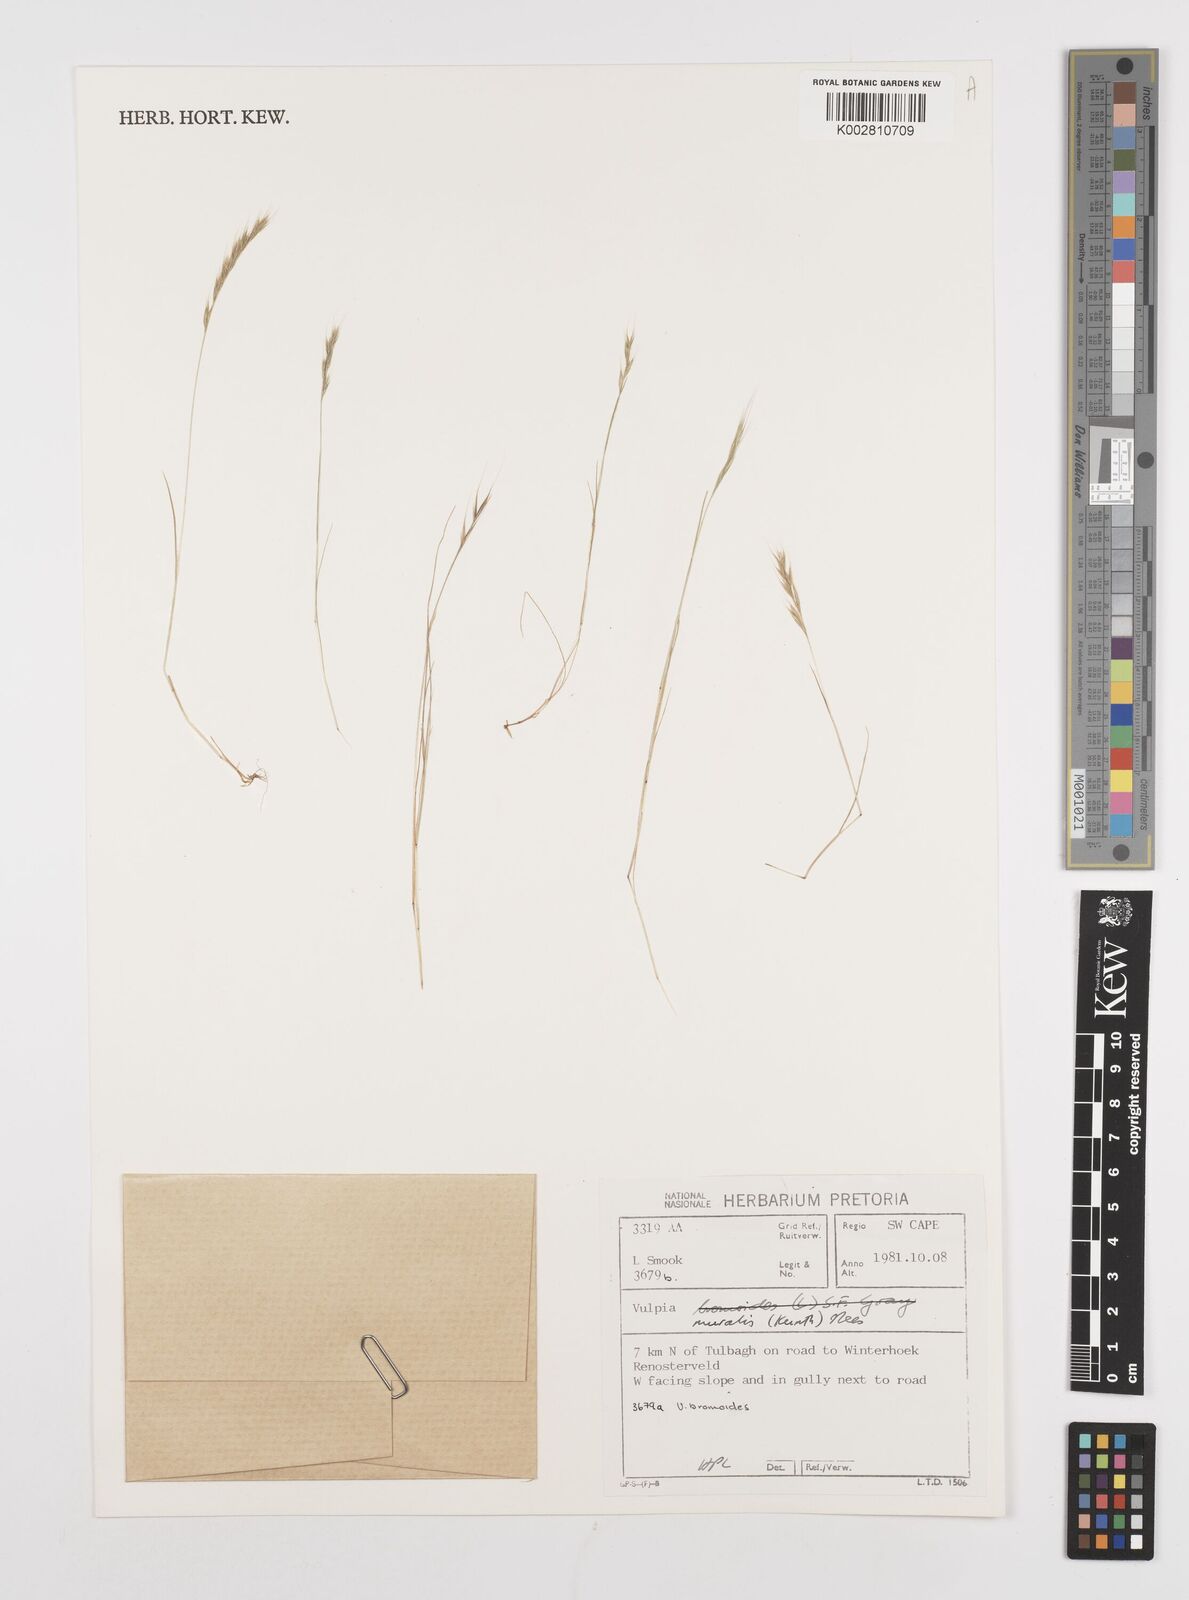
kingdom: Plantae
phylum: Tracheophyta
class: Liliopsida
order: Poales
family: Poaceae
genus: Festuca
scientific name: Festuca muralis
